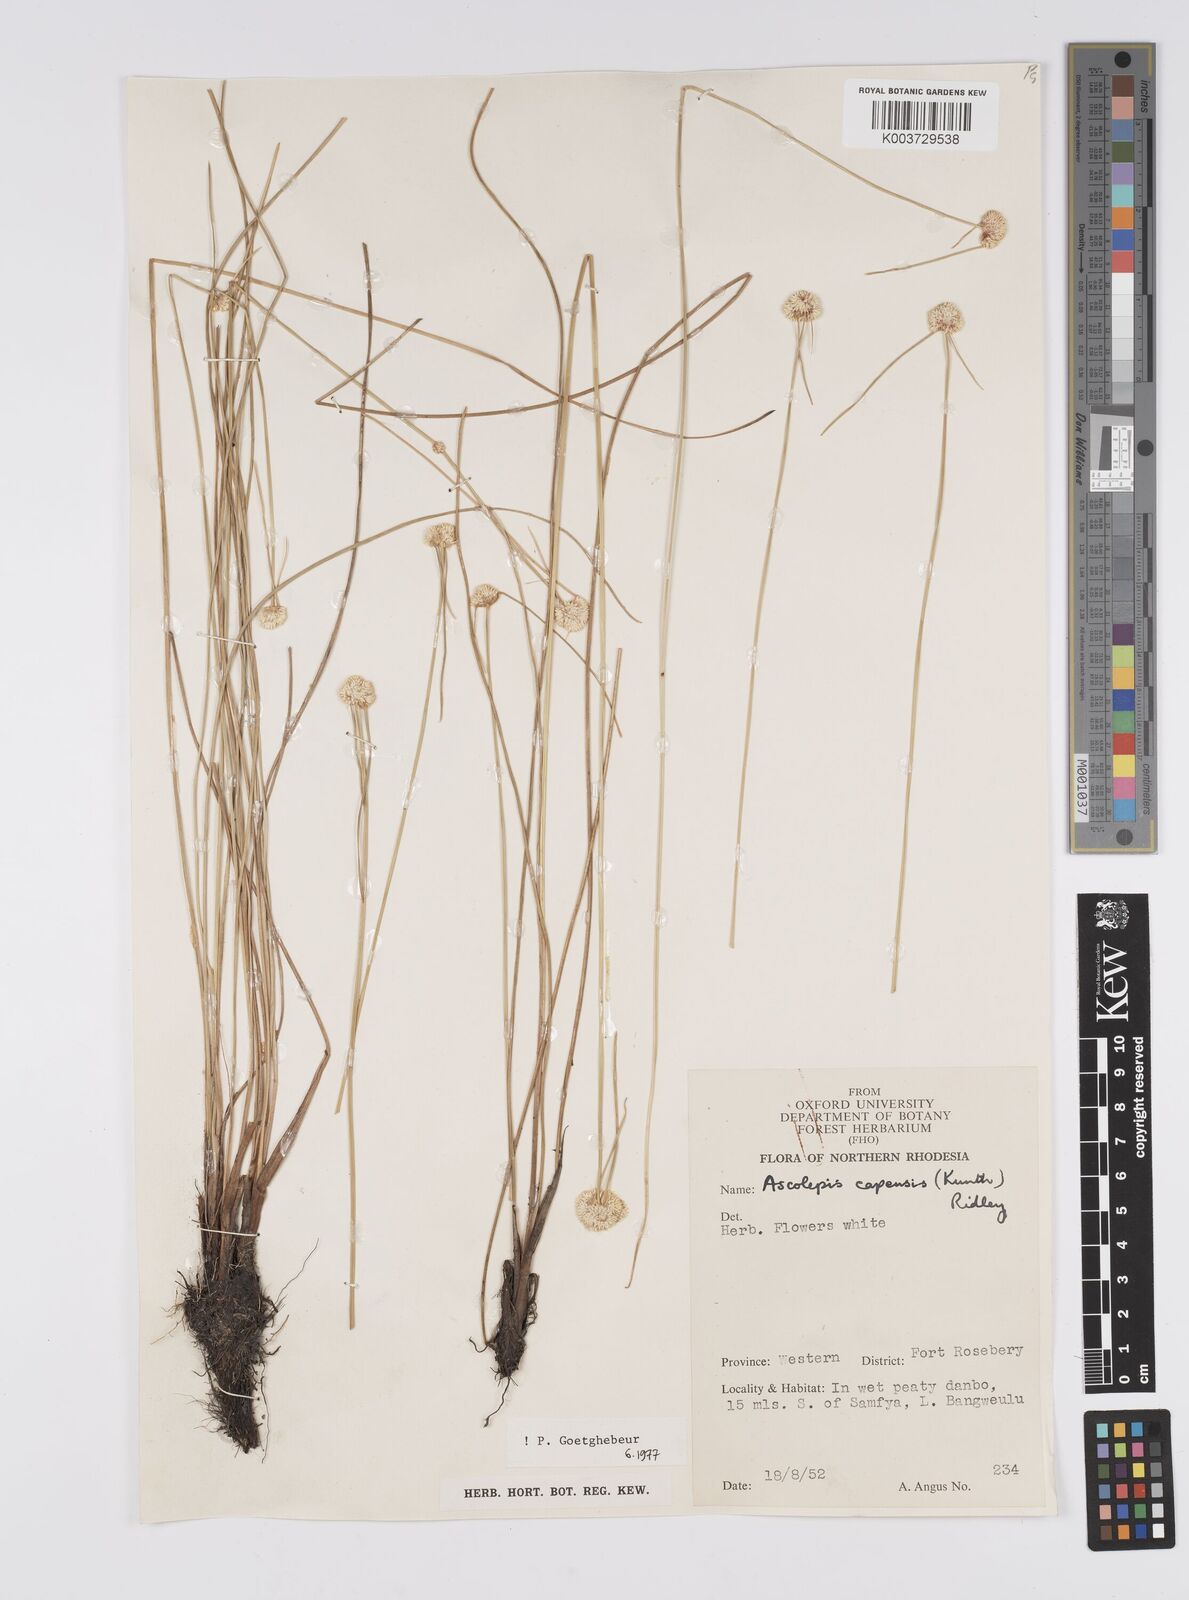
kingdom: Plantae
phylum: Tracheophyta
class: Liliopsida
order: Poales
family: Cyperaceae
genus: Cyperus
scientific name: Cyperus
